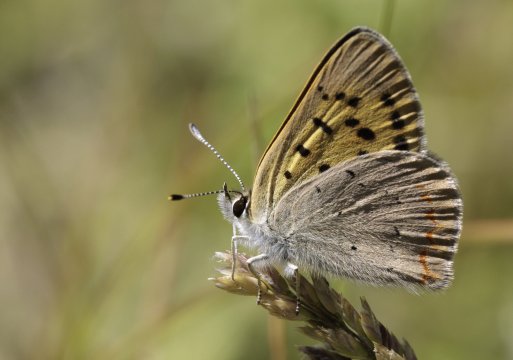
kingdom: Animalia
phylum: Arthropoda
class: Insecta
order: Lepidoptera
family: Sesiidae
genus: Sesia
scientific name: Sesia Lycaena helloides
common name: Purplish Copper
